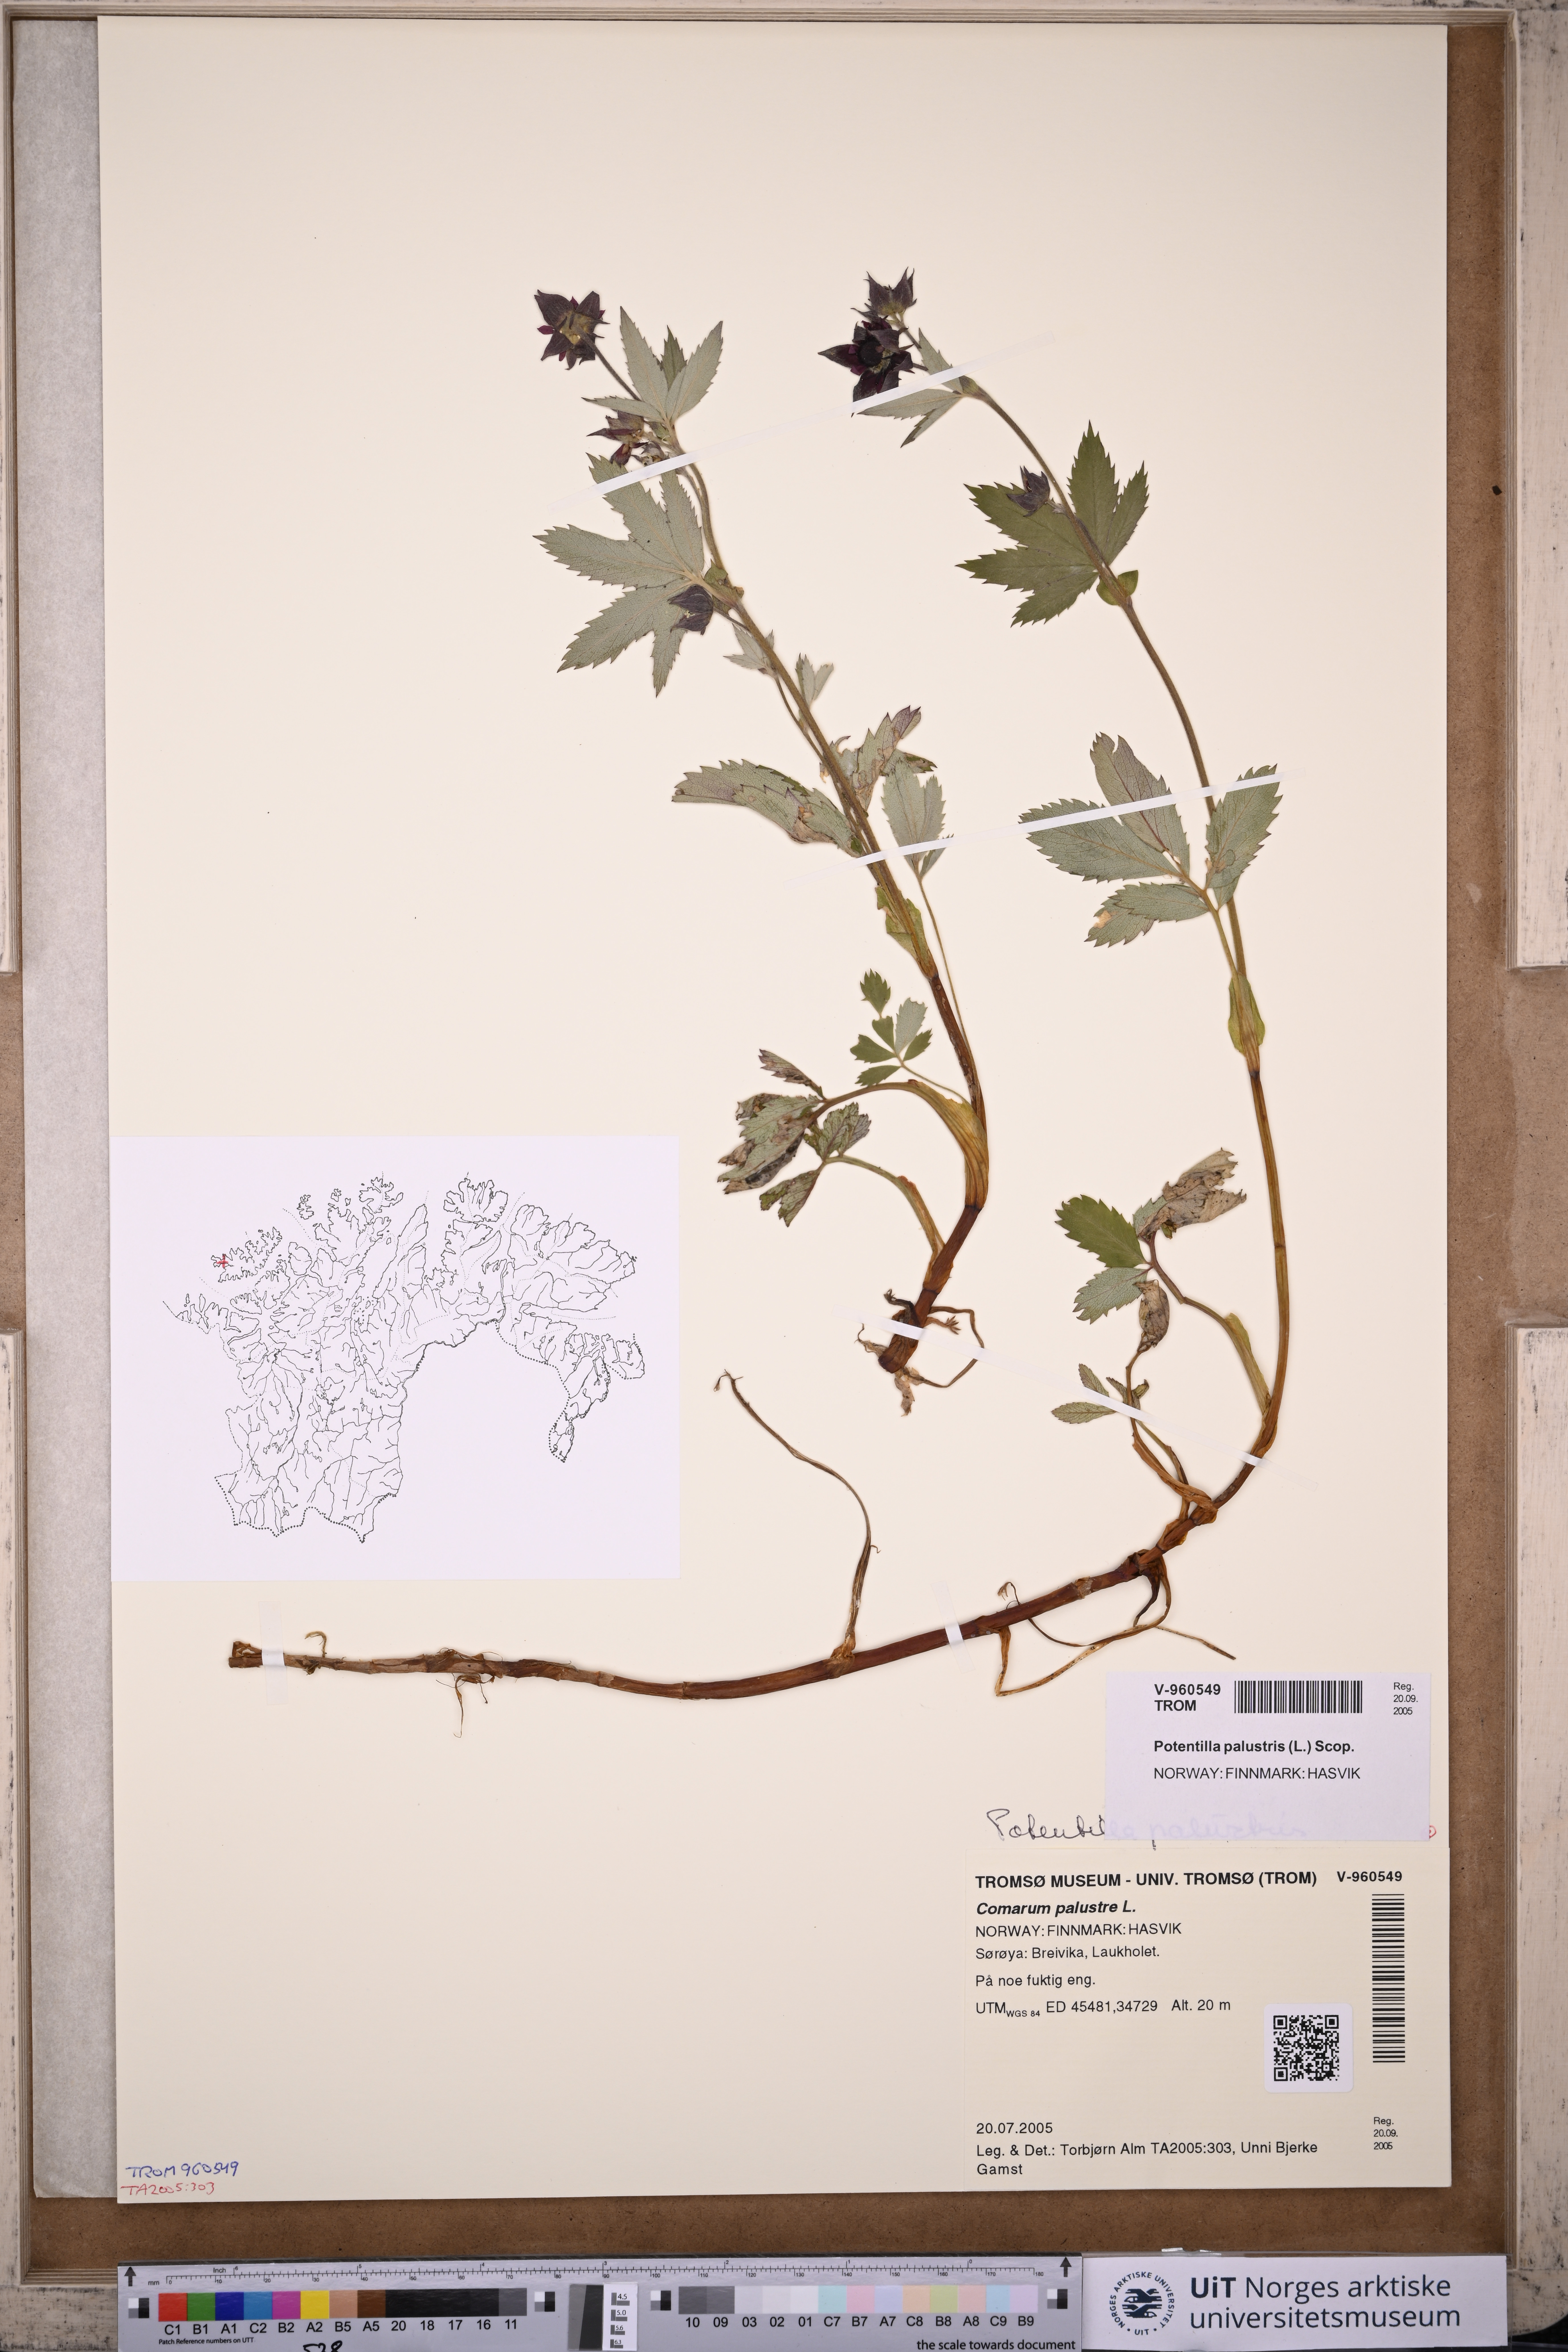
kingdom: Plantae
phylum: Tracheophyta
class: Magnoliopsida
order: Rosales
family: Rosaceae
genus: Comarum
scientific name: Comarum palustre
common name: Marsh cinquefoil
